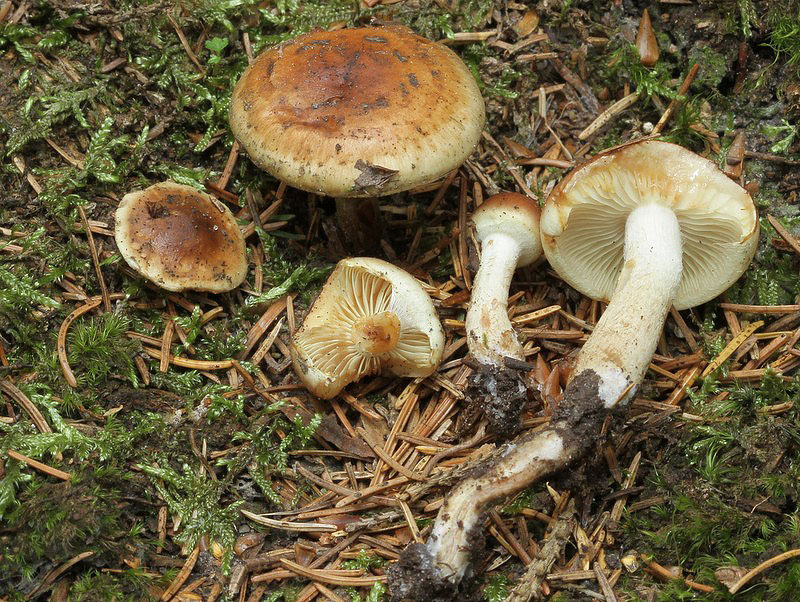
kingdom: Fungi
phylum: Basidiomycota
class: Agaricomycetes
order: Agaricales
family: Strophariaceae
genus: Hypholoma
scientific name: Hypholoma capnoides
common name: gran-svovlhat
